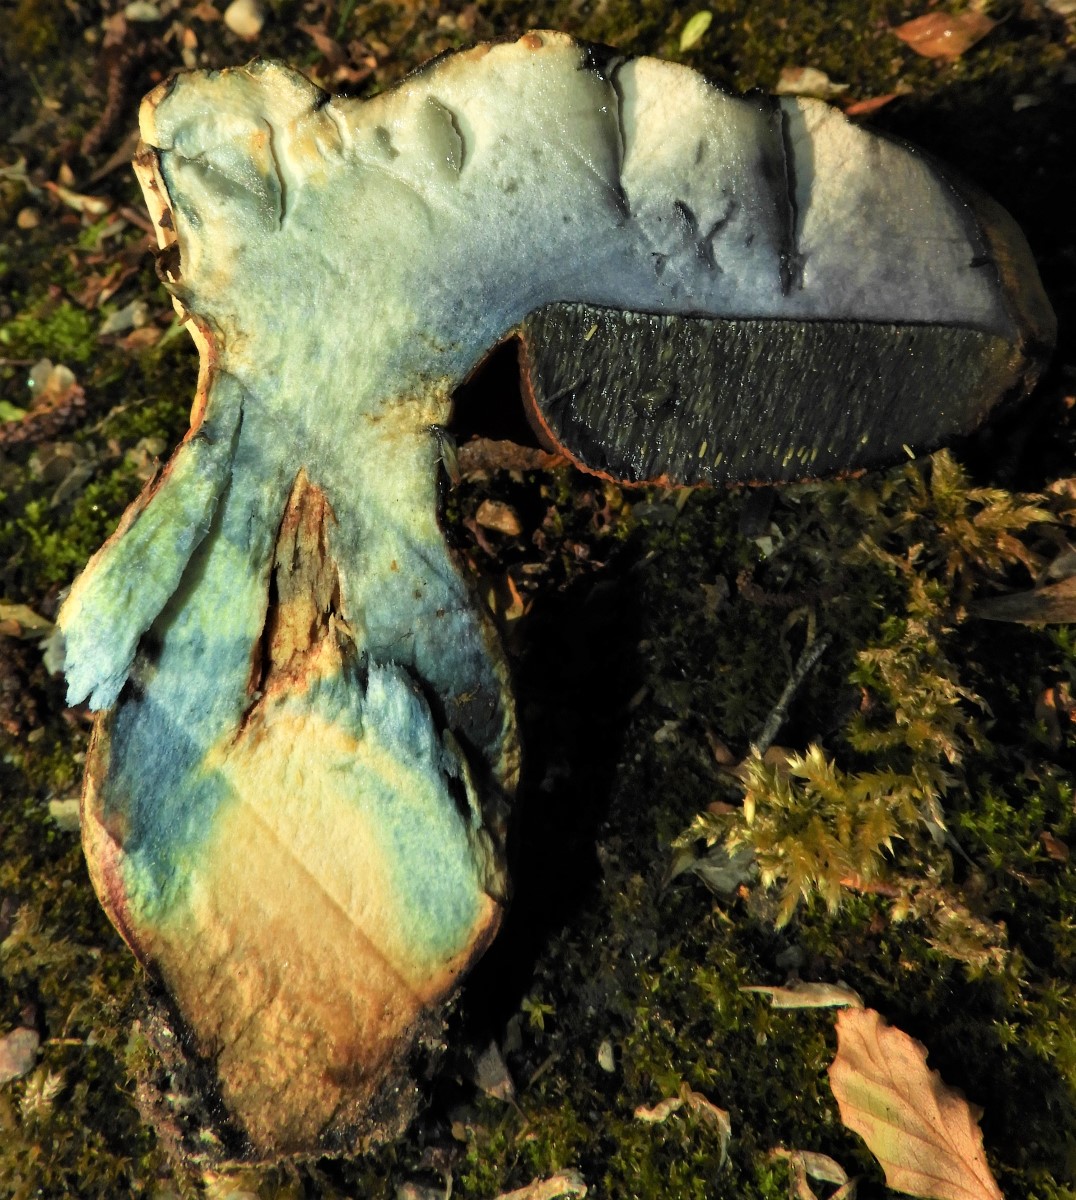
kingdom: Fungi
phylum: Basidiomycota
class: Agaricomycetes
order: Boletales
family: Boletaceae
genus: Suillellus
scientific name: Suillellus luridus
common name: netstokket indigorørhat
